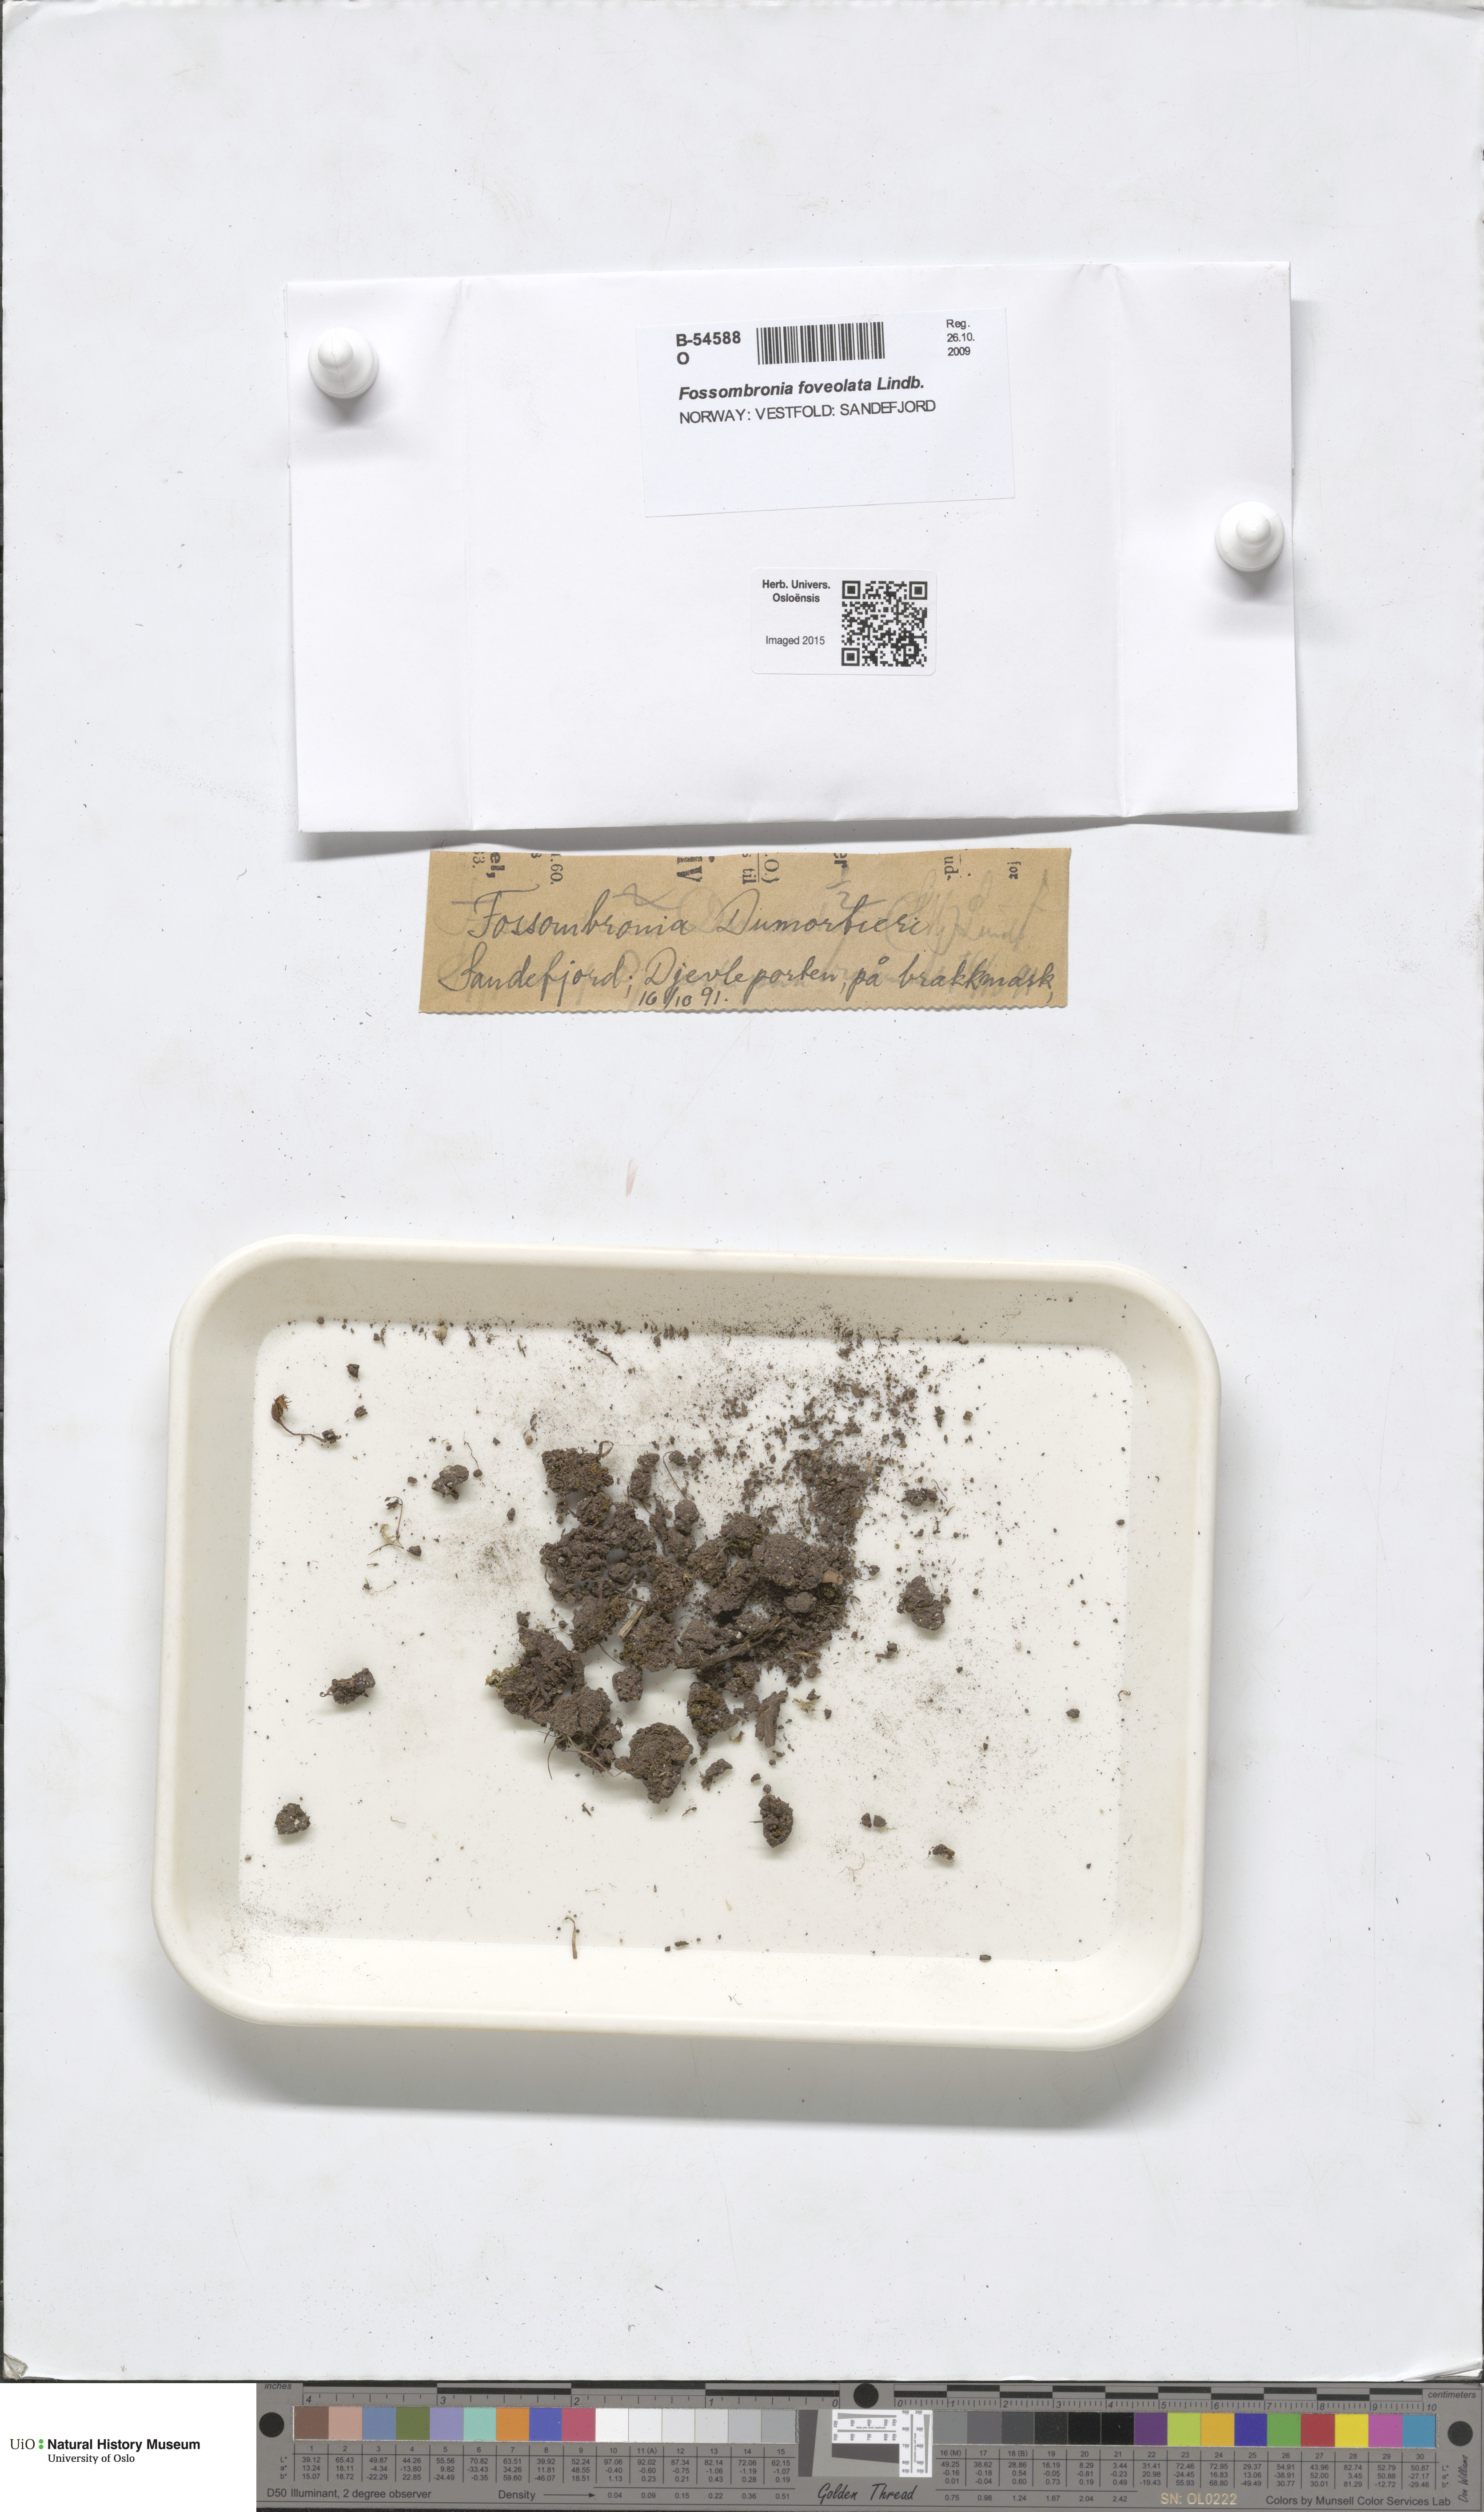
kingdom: Plantae
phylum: Marchantiophyta
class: Jungermanniopsida
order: Fossombroniales
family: Fossombroniaceae
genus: Fossombronia
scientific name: Fossombronia foveolata
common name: Pitted frillwort
